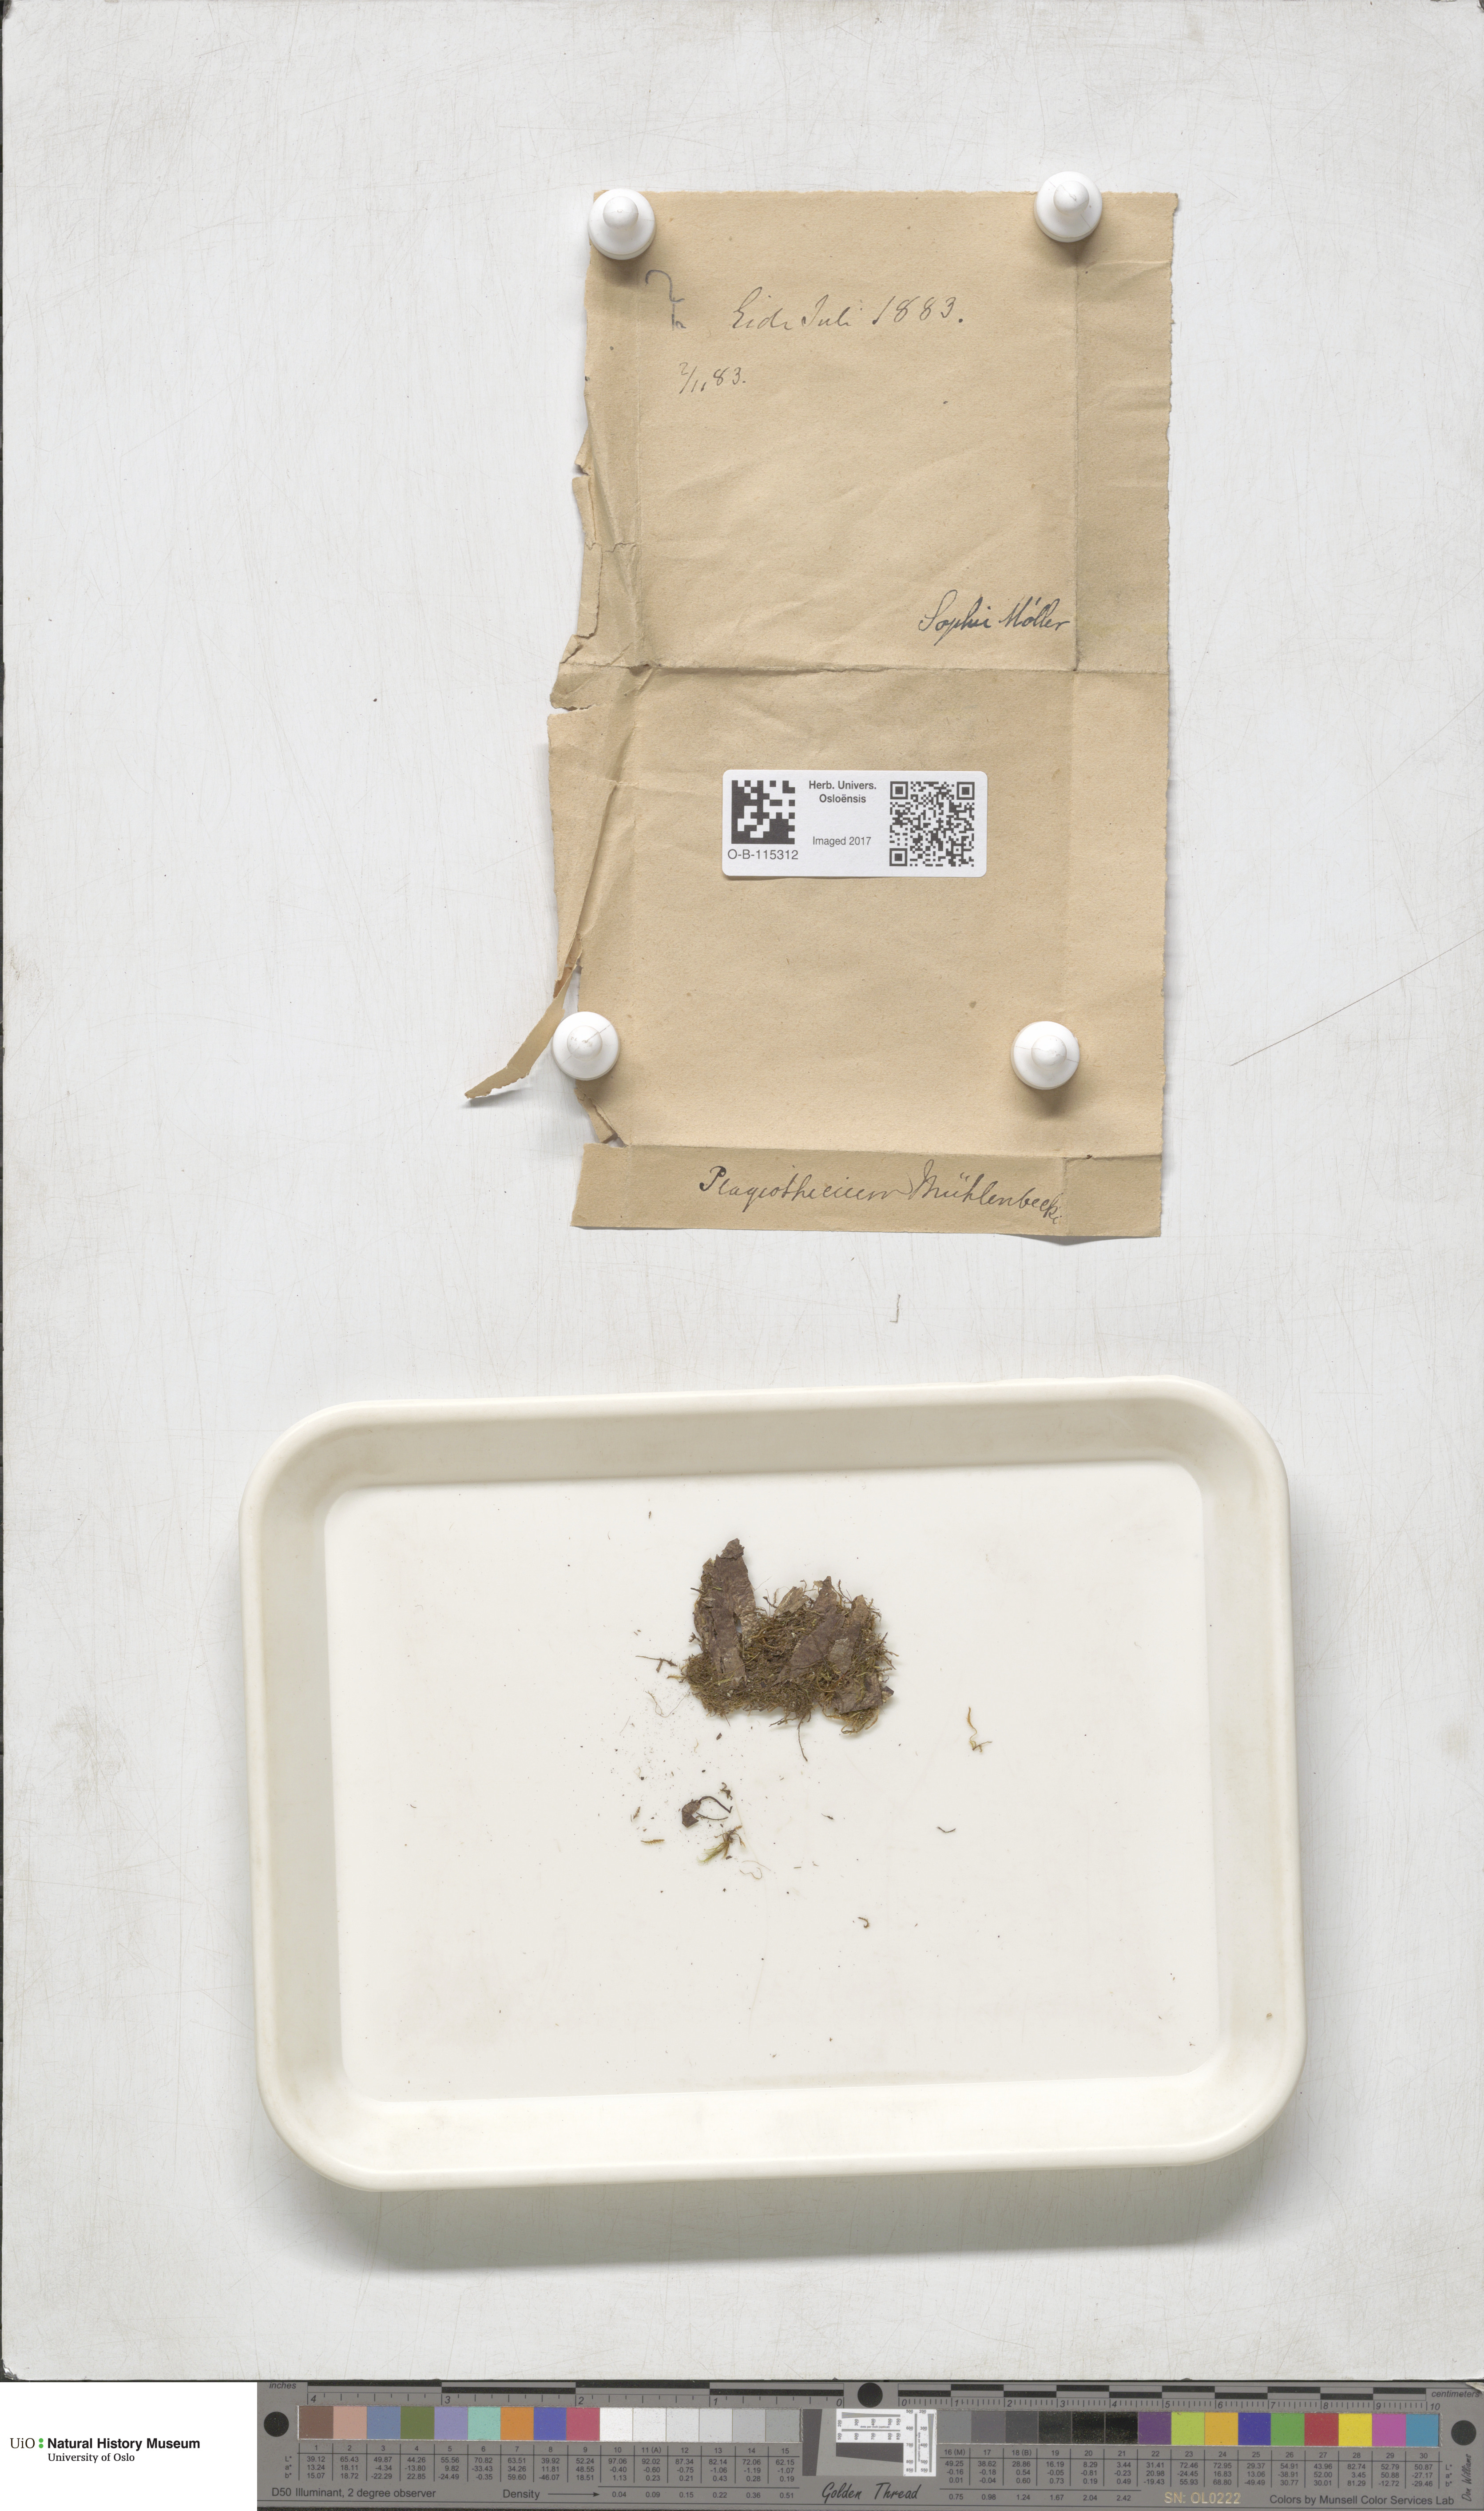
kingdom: Plantae
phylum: Bryophyta
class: Bryopsida
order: Hypnales
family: Plagiotheciaceae
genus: Herzogiella
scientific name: Herzogiella striatella
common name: Muhlenbeck's feather-moss
